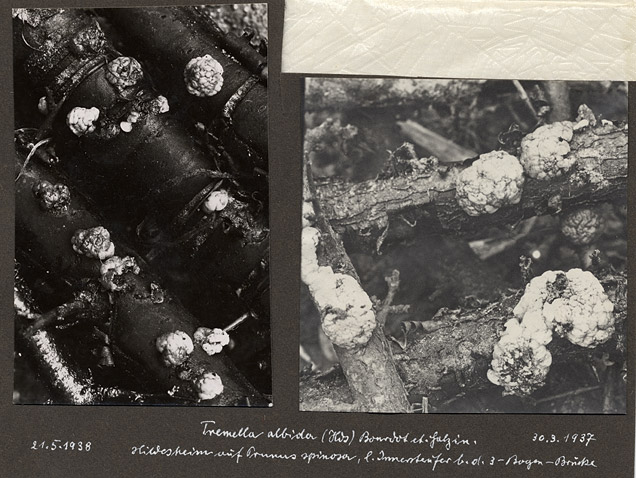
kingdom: Fungi
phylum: Basidiomycota
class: Agaricomycetes
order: Auriculariales
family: Auriculariaceae
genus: Exidia
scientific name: Exidia thuretiana
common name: White brain
